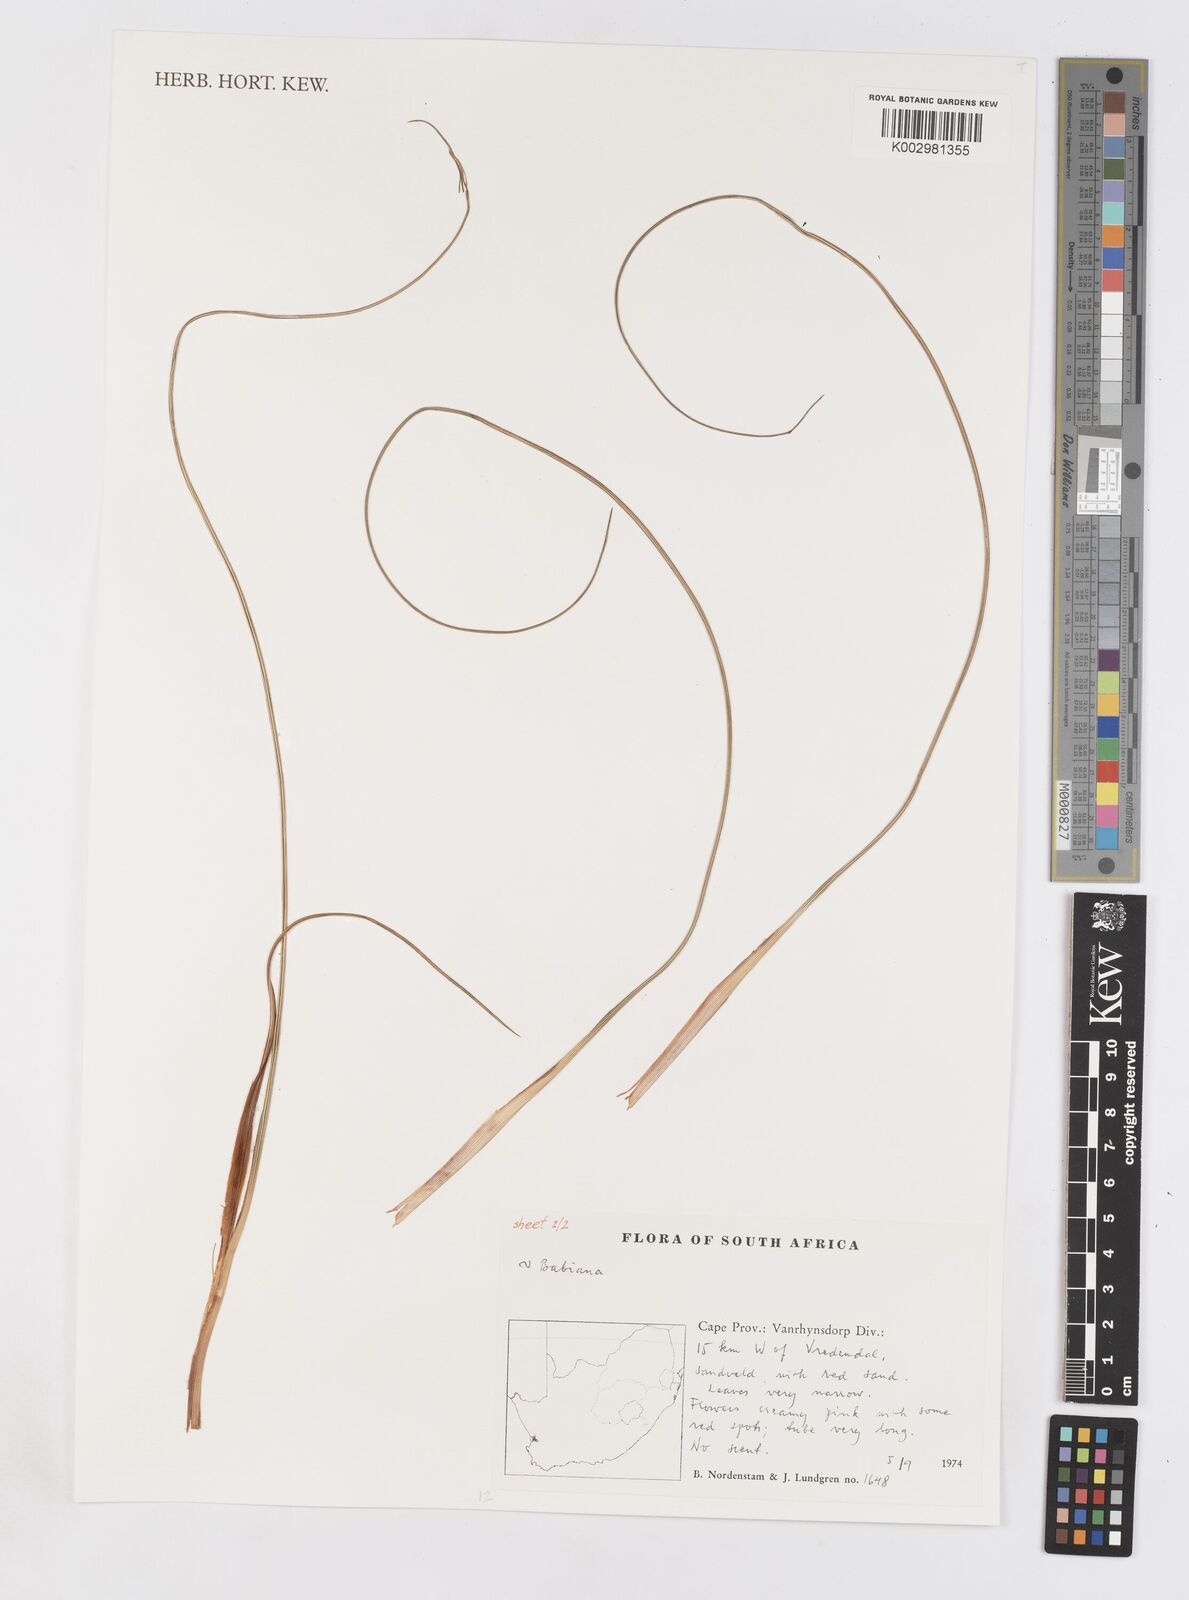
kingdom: Plantae
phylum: Tracheophyta
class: Liliopsida
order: Asparagales
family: Iridaceae
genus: Babiana
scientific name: Babiana
